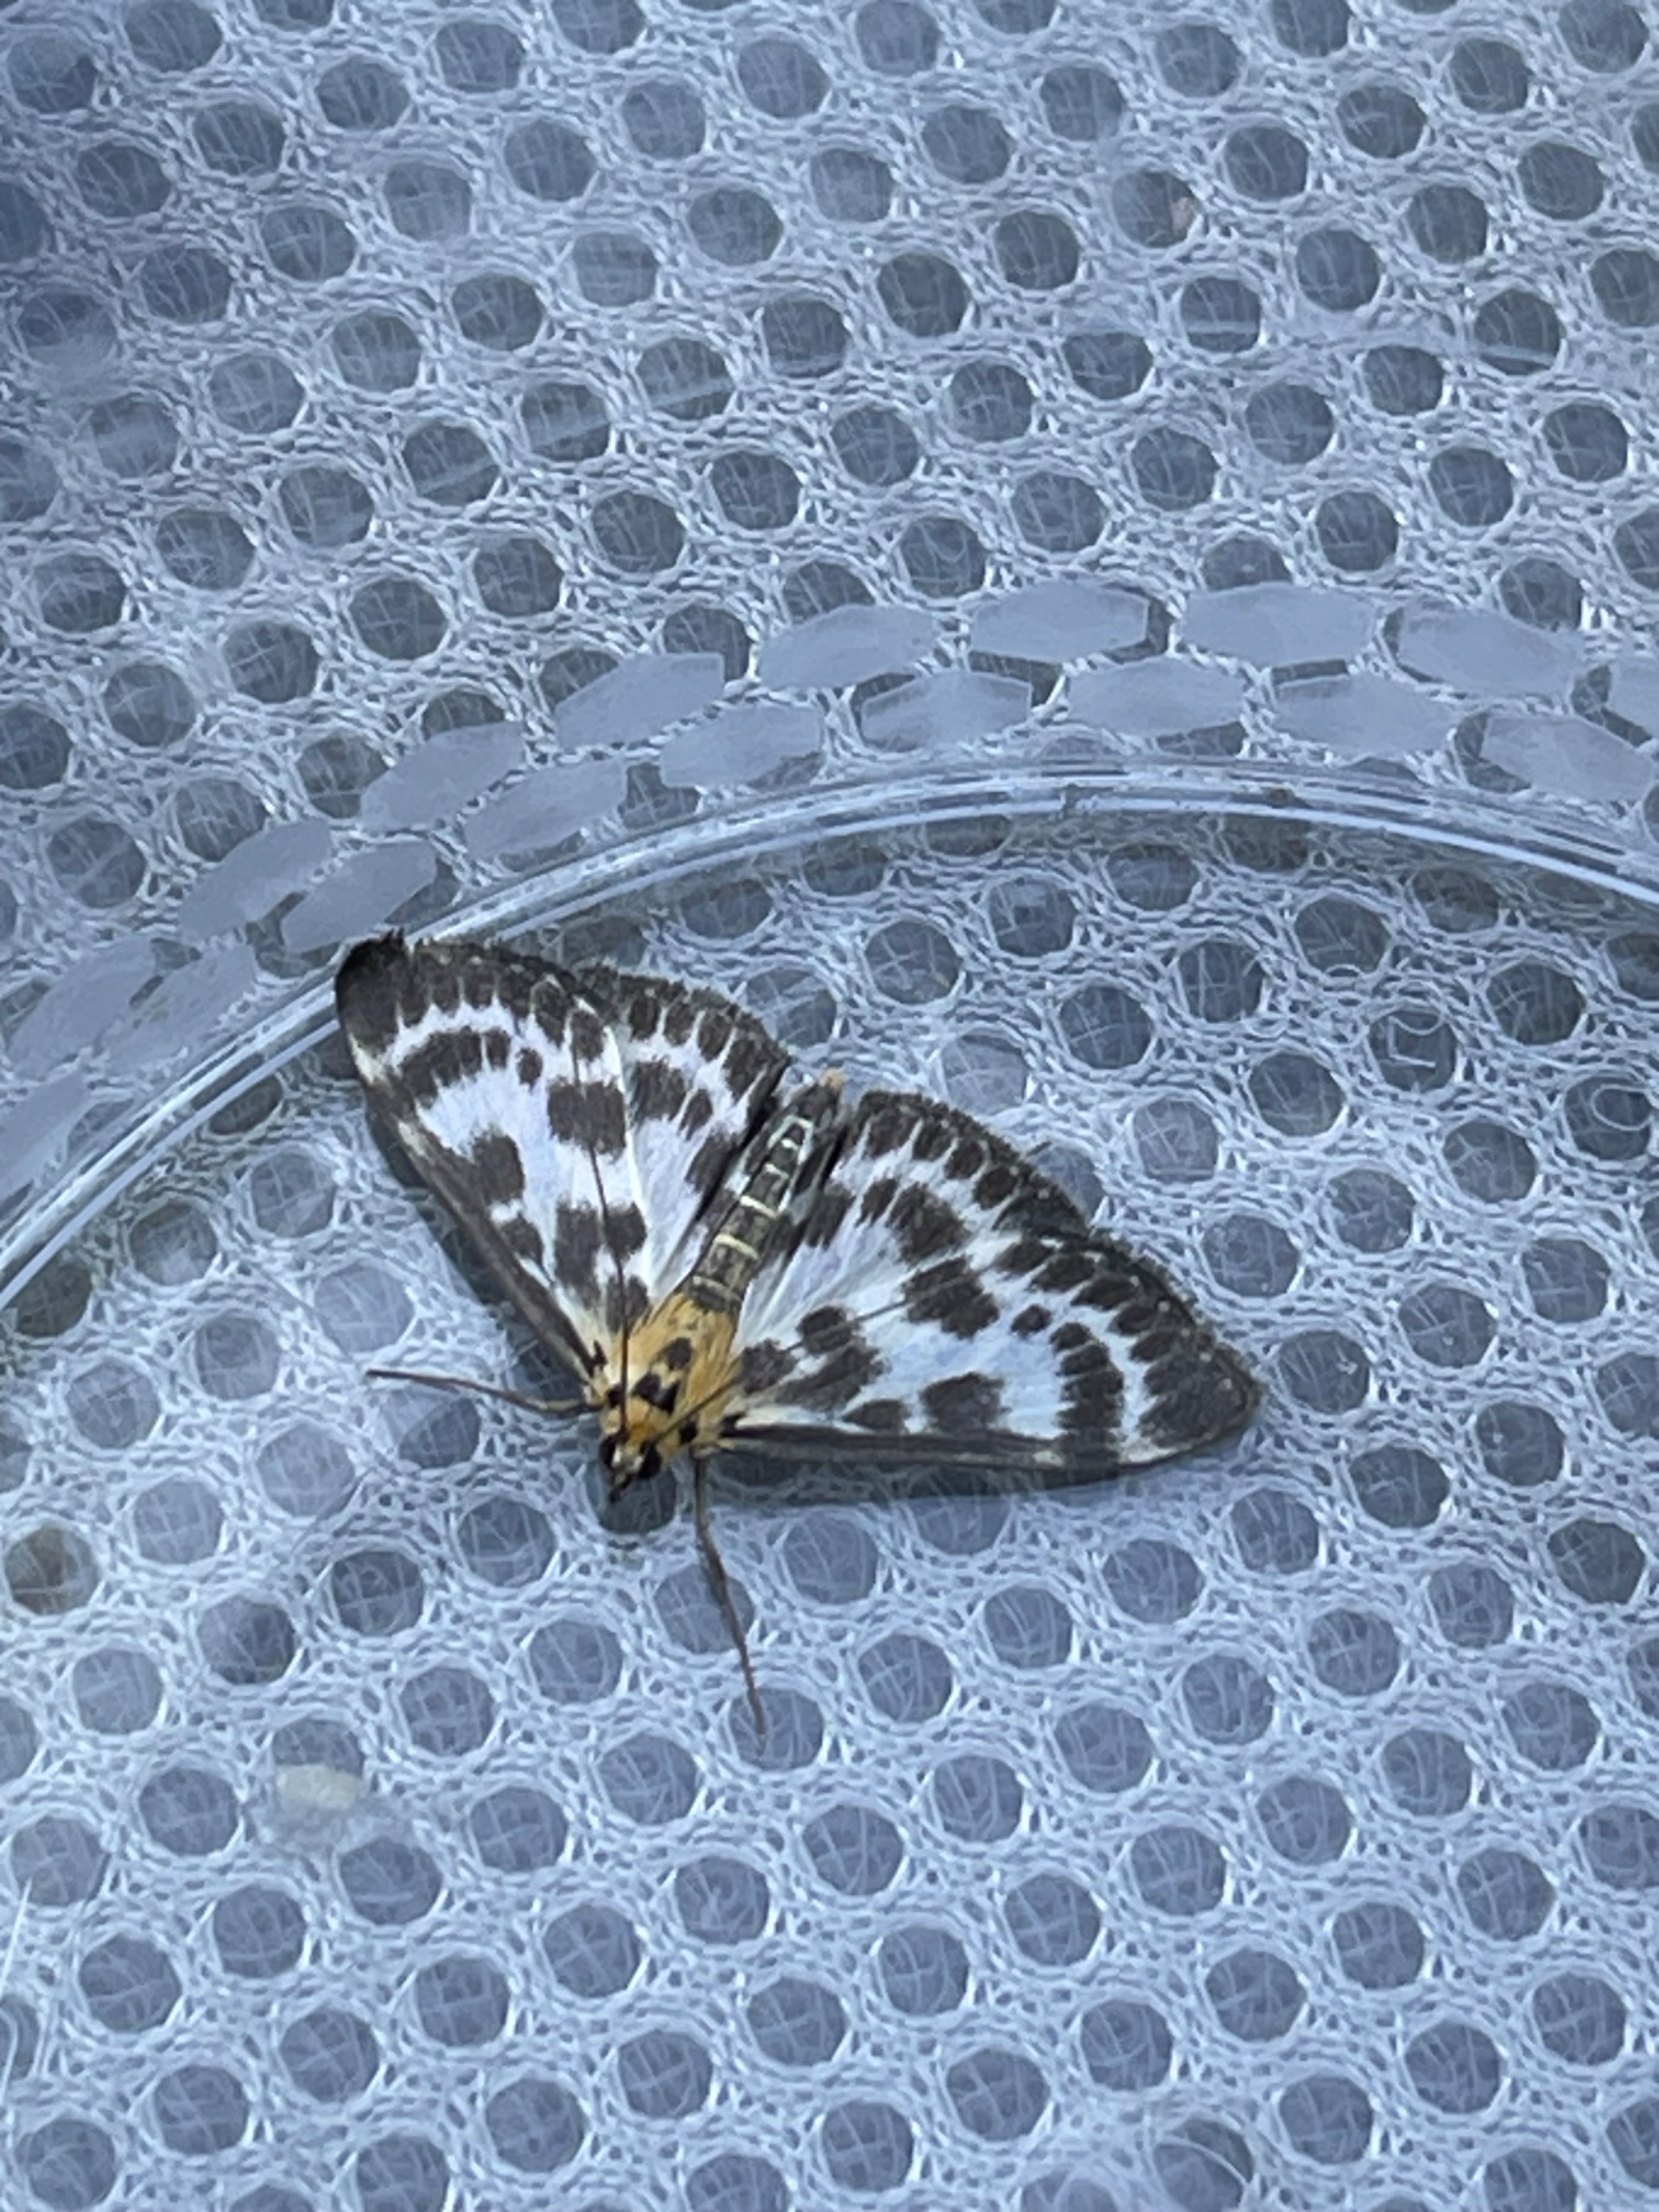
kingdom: Animalia
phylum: Arthropoda
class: Insecta
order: Lepidoptera
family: Crambidae
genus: Anania
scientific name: Anania hortulata
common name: Nældehalvmøl
